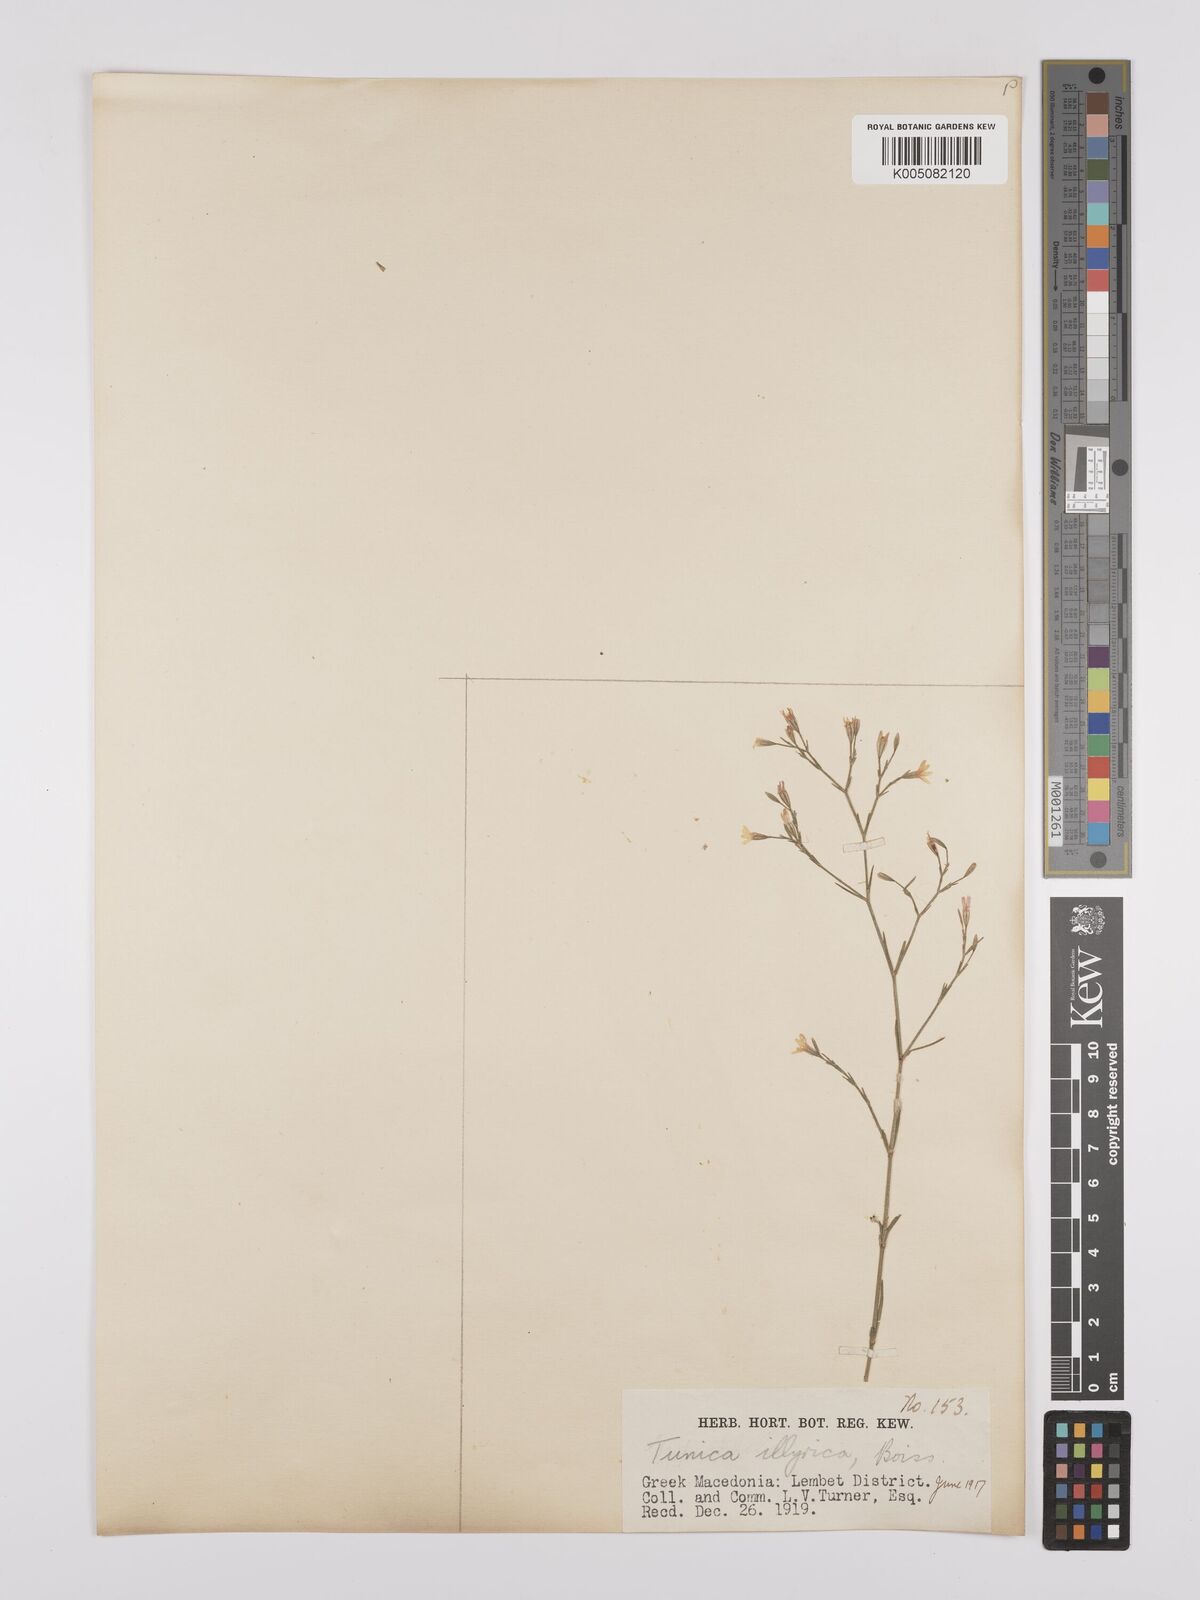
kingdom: Plantae
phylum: Tracheophyta
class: Magnoliopsida
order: Caryophyllales
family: Caryophyllaceae
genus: Dianthus
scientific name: Dianthus illyricus
